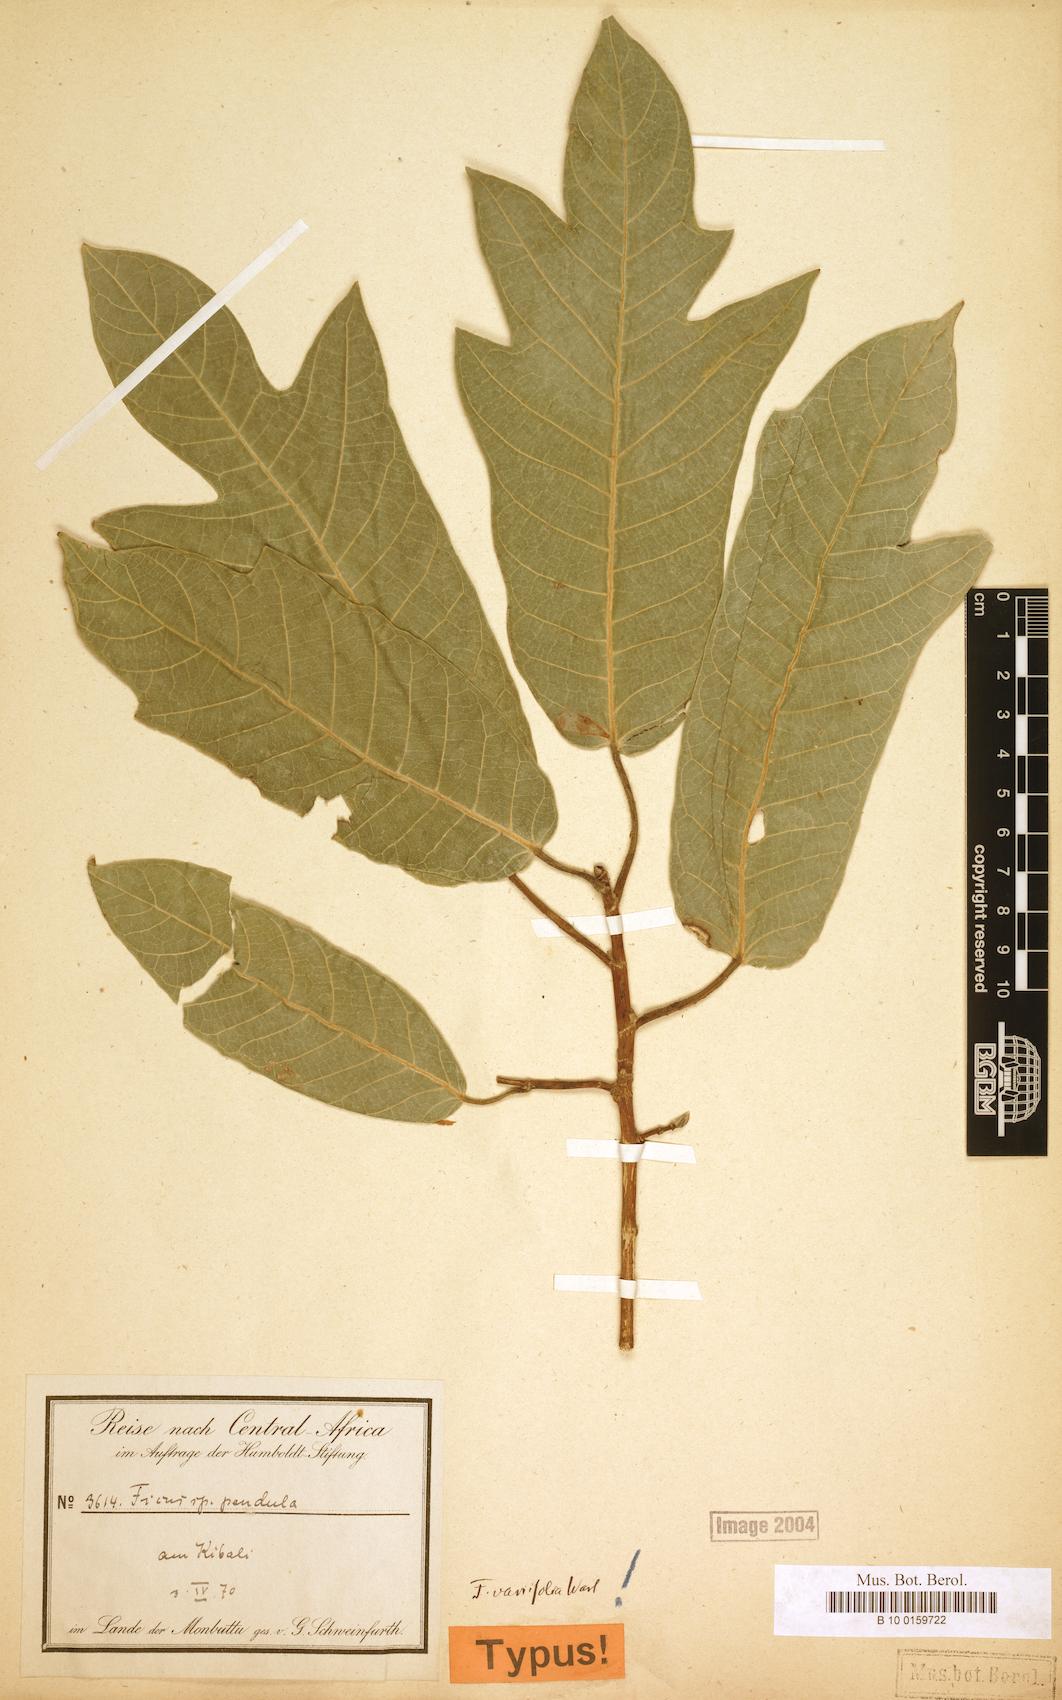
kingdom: Plantae
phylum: Tracheophyta
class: Magnoliopsida
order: Rosales
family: Moraceae
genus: Ficus
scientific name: Ficus variifolia
